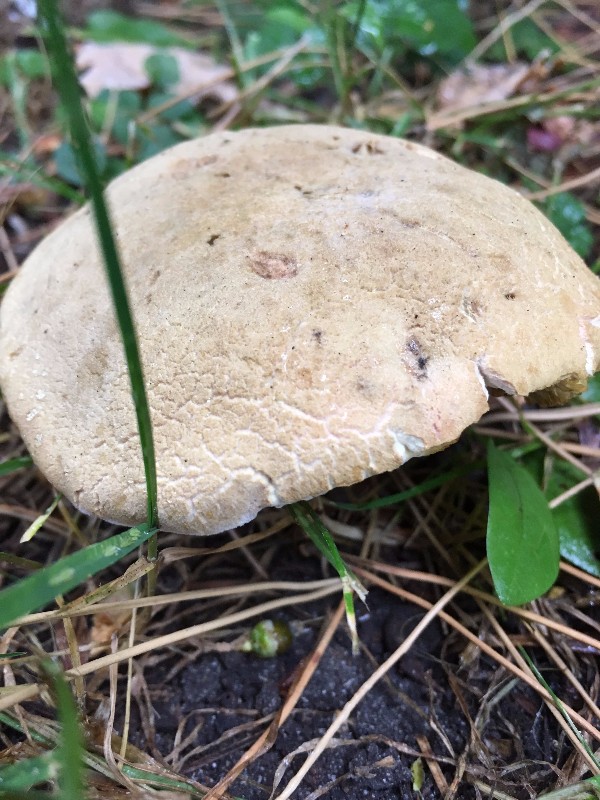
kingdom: Fungi
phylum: Basidiomycota
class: Agaricomycetes
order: Boletales
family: Boletaceae
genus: Hortiboletus
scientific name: Hortiboletus bubalinus
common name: aurora-rørhat
